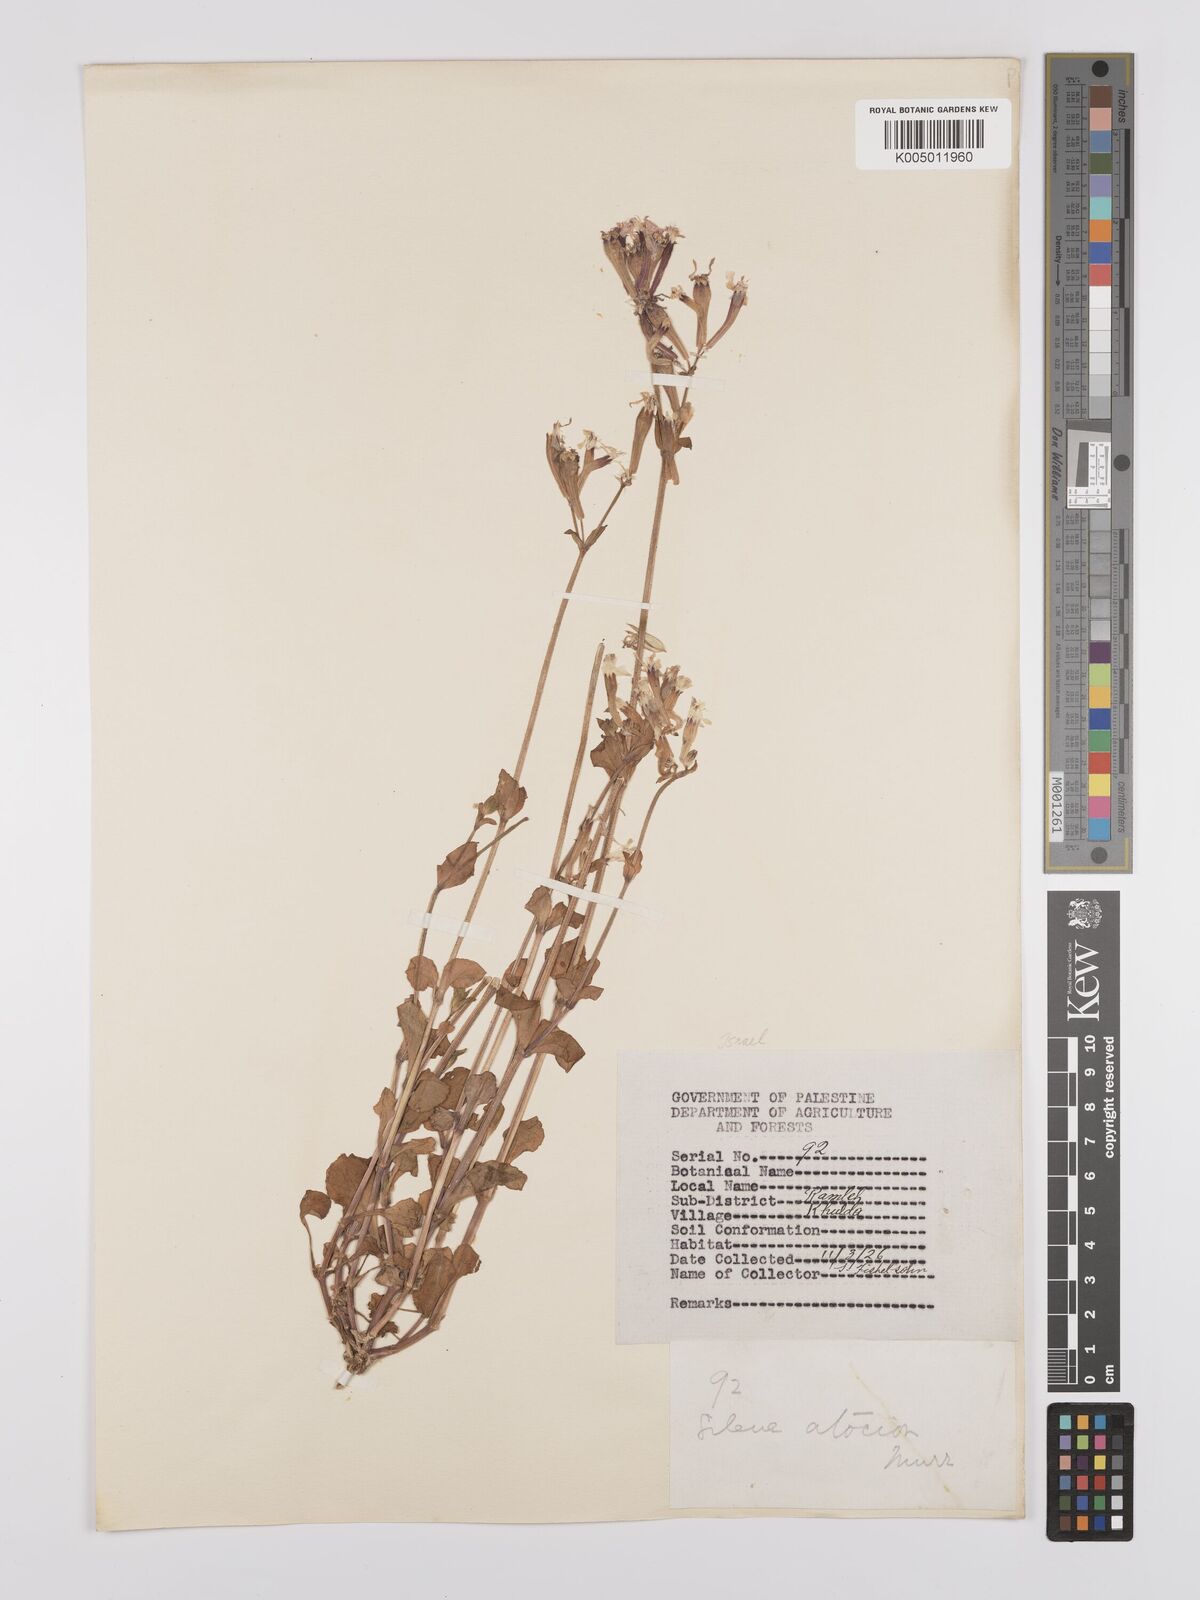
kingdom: Plantae
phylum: Tracheophyta
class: Magnoliopsida
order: Caryophyllales
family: Caryophyllaceae
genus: Silene
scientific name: Silene aegyptiaca
